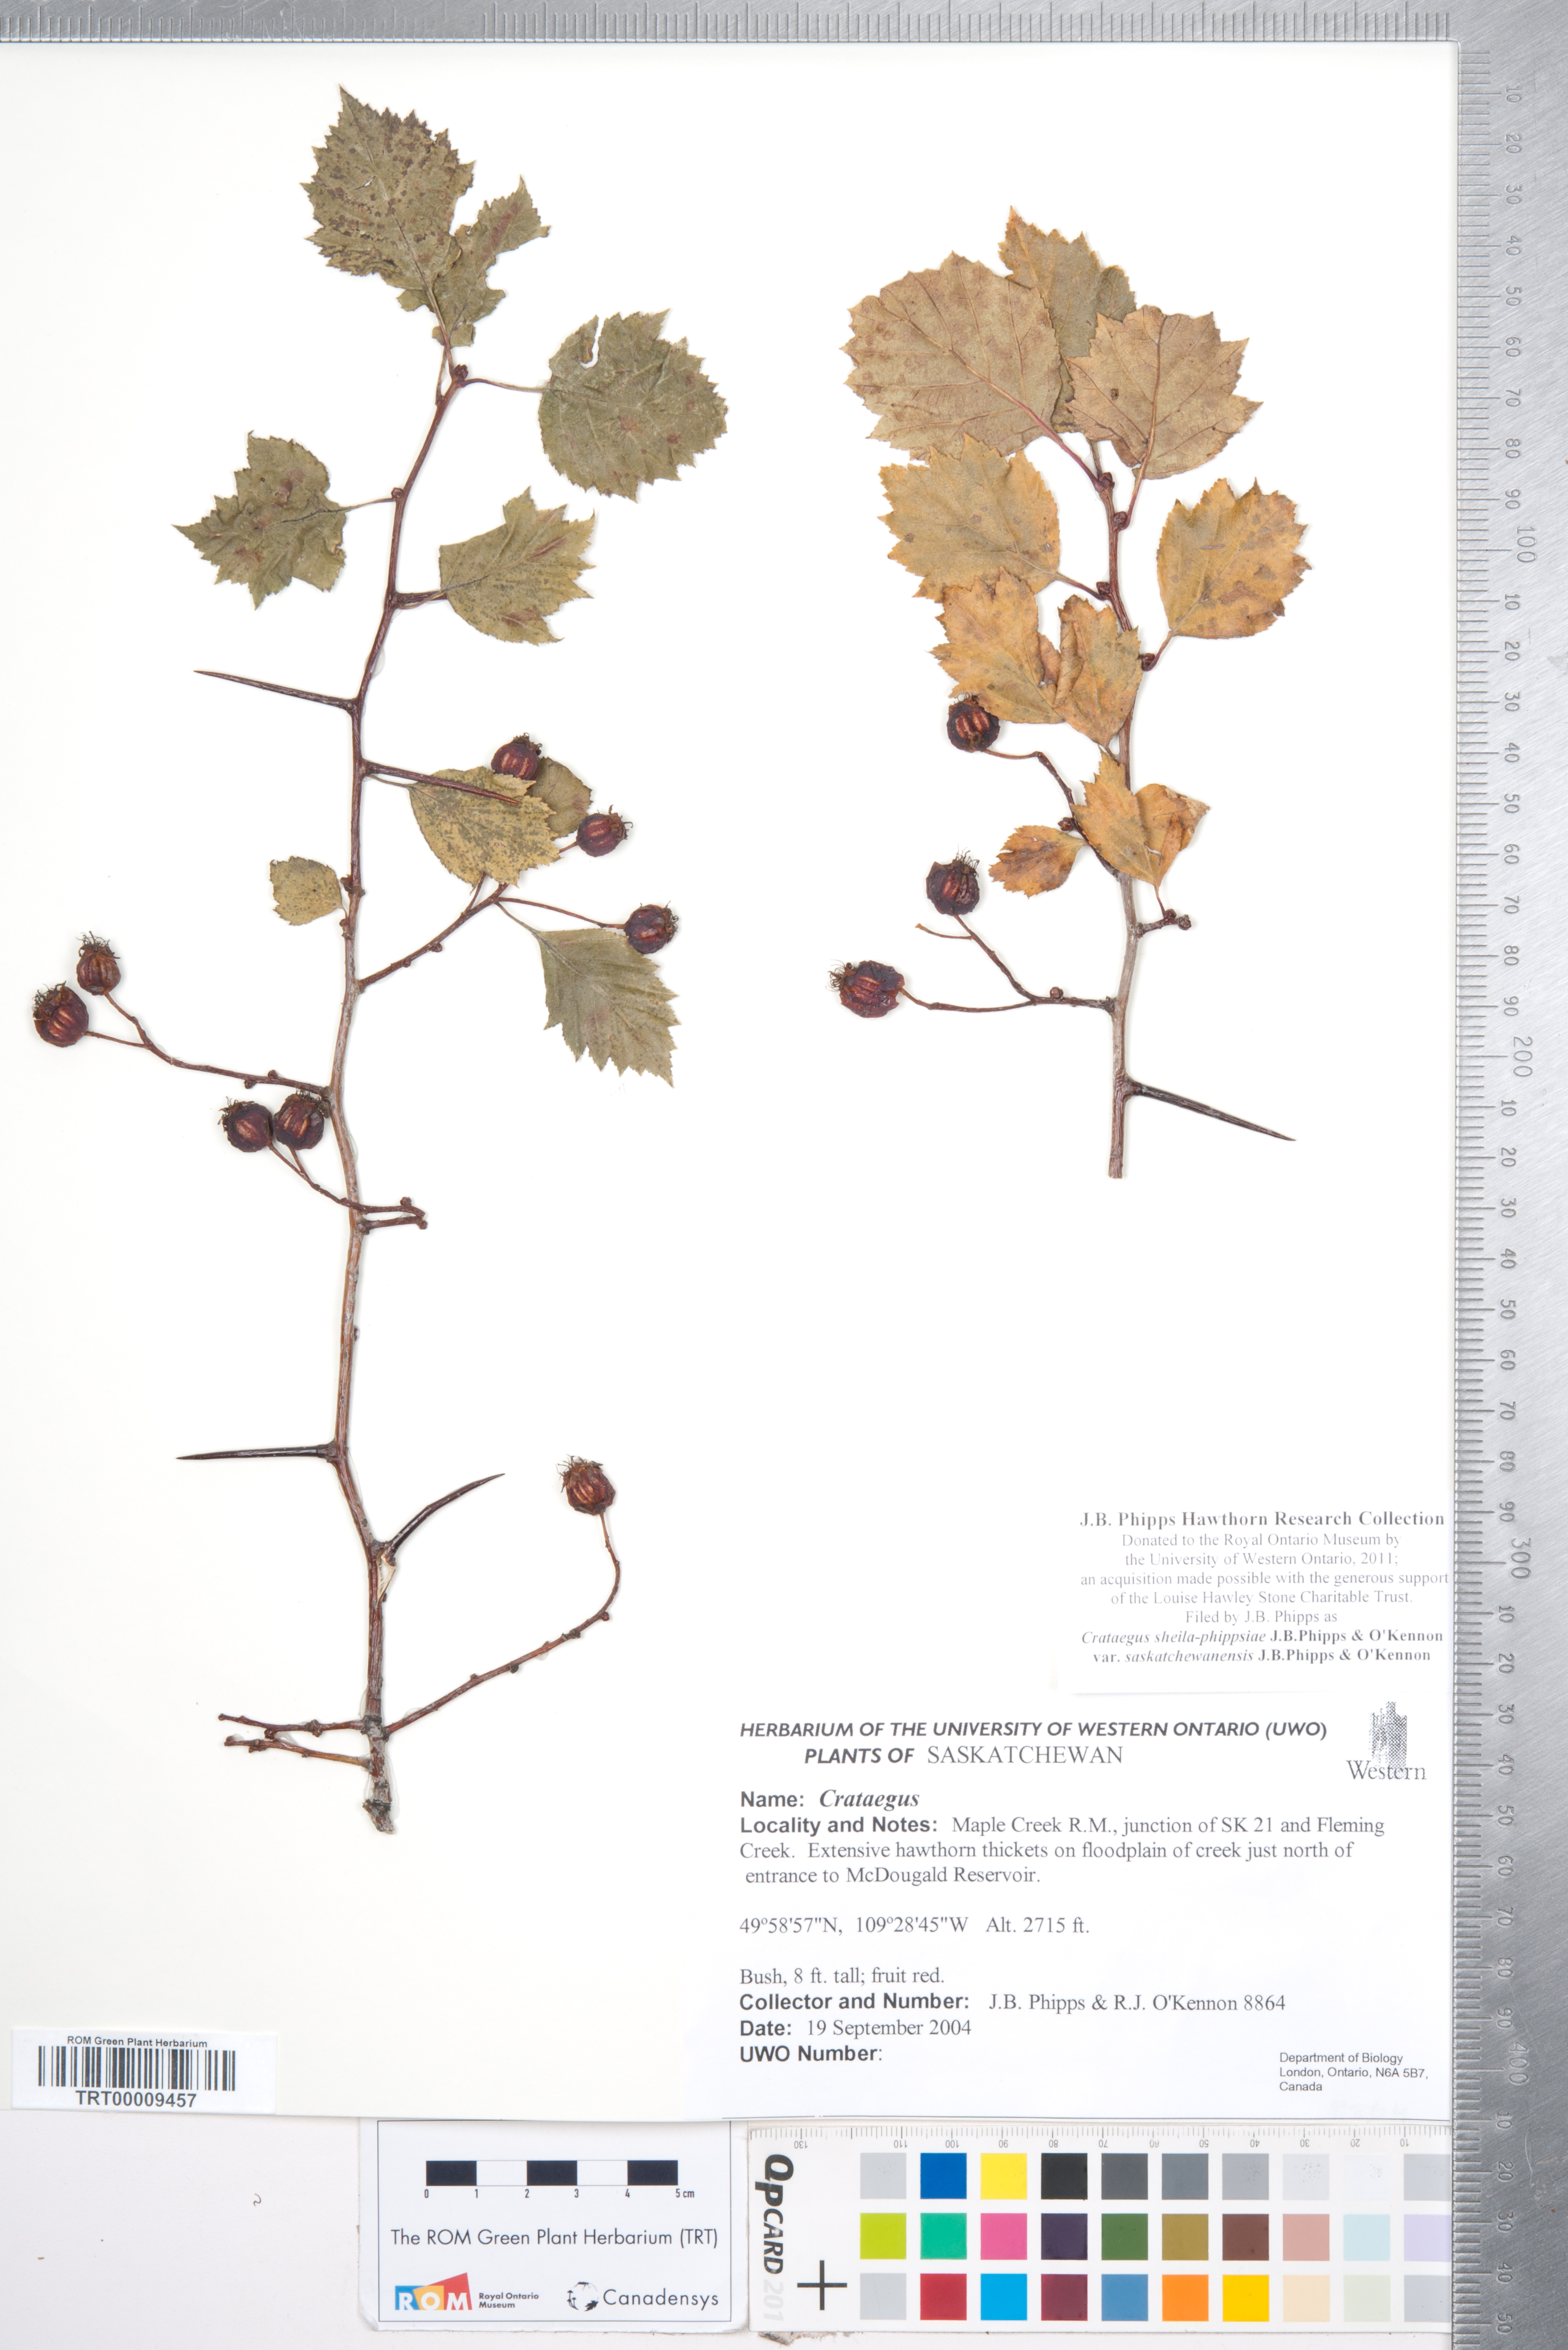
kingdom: Plantae
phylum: Tracheophyta
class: Magnoliopsida
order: Rosales
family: Rosaceae
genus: Crataegus
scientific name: Crataegus sheila-phippsiae
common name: Sheila phipps' hawthorn
